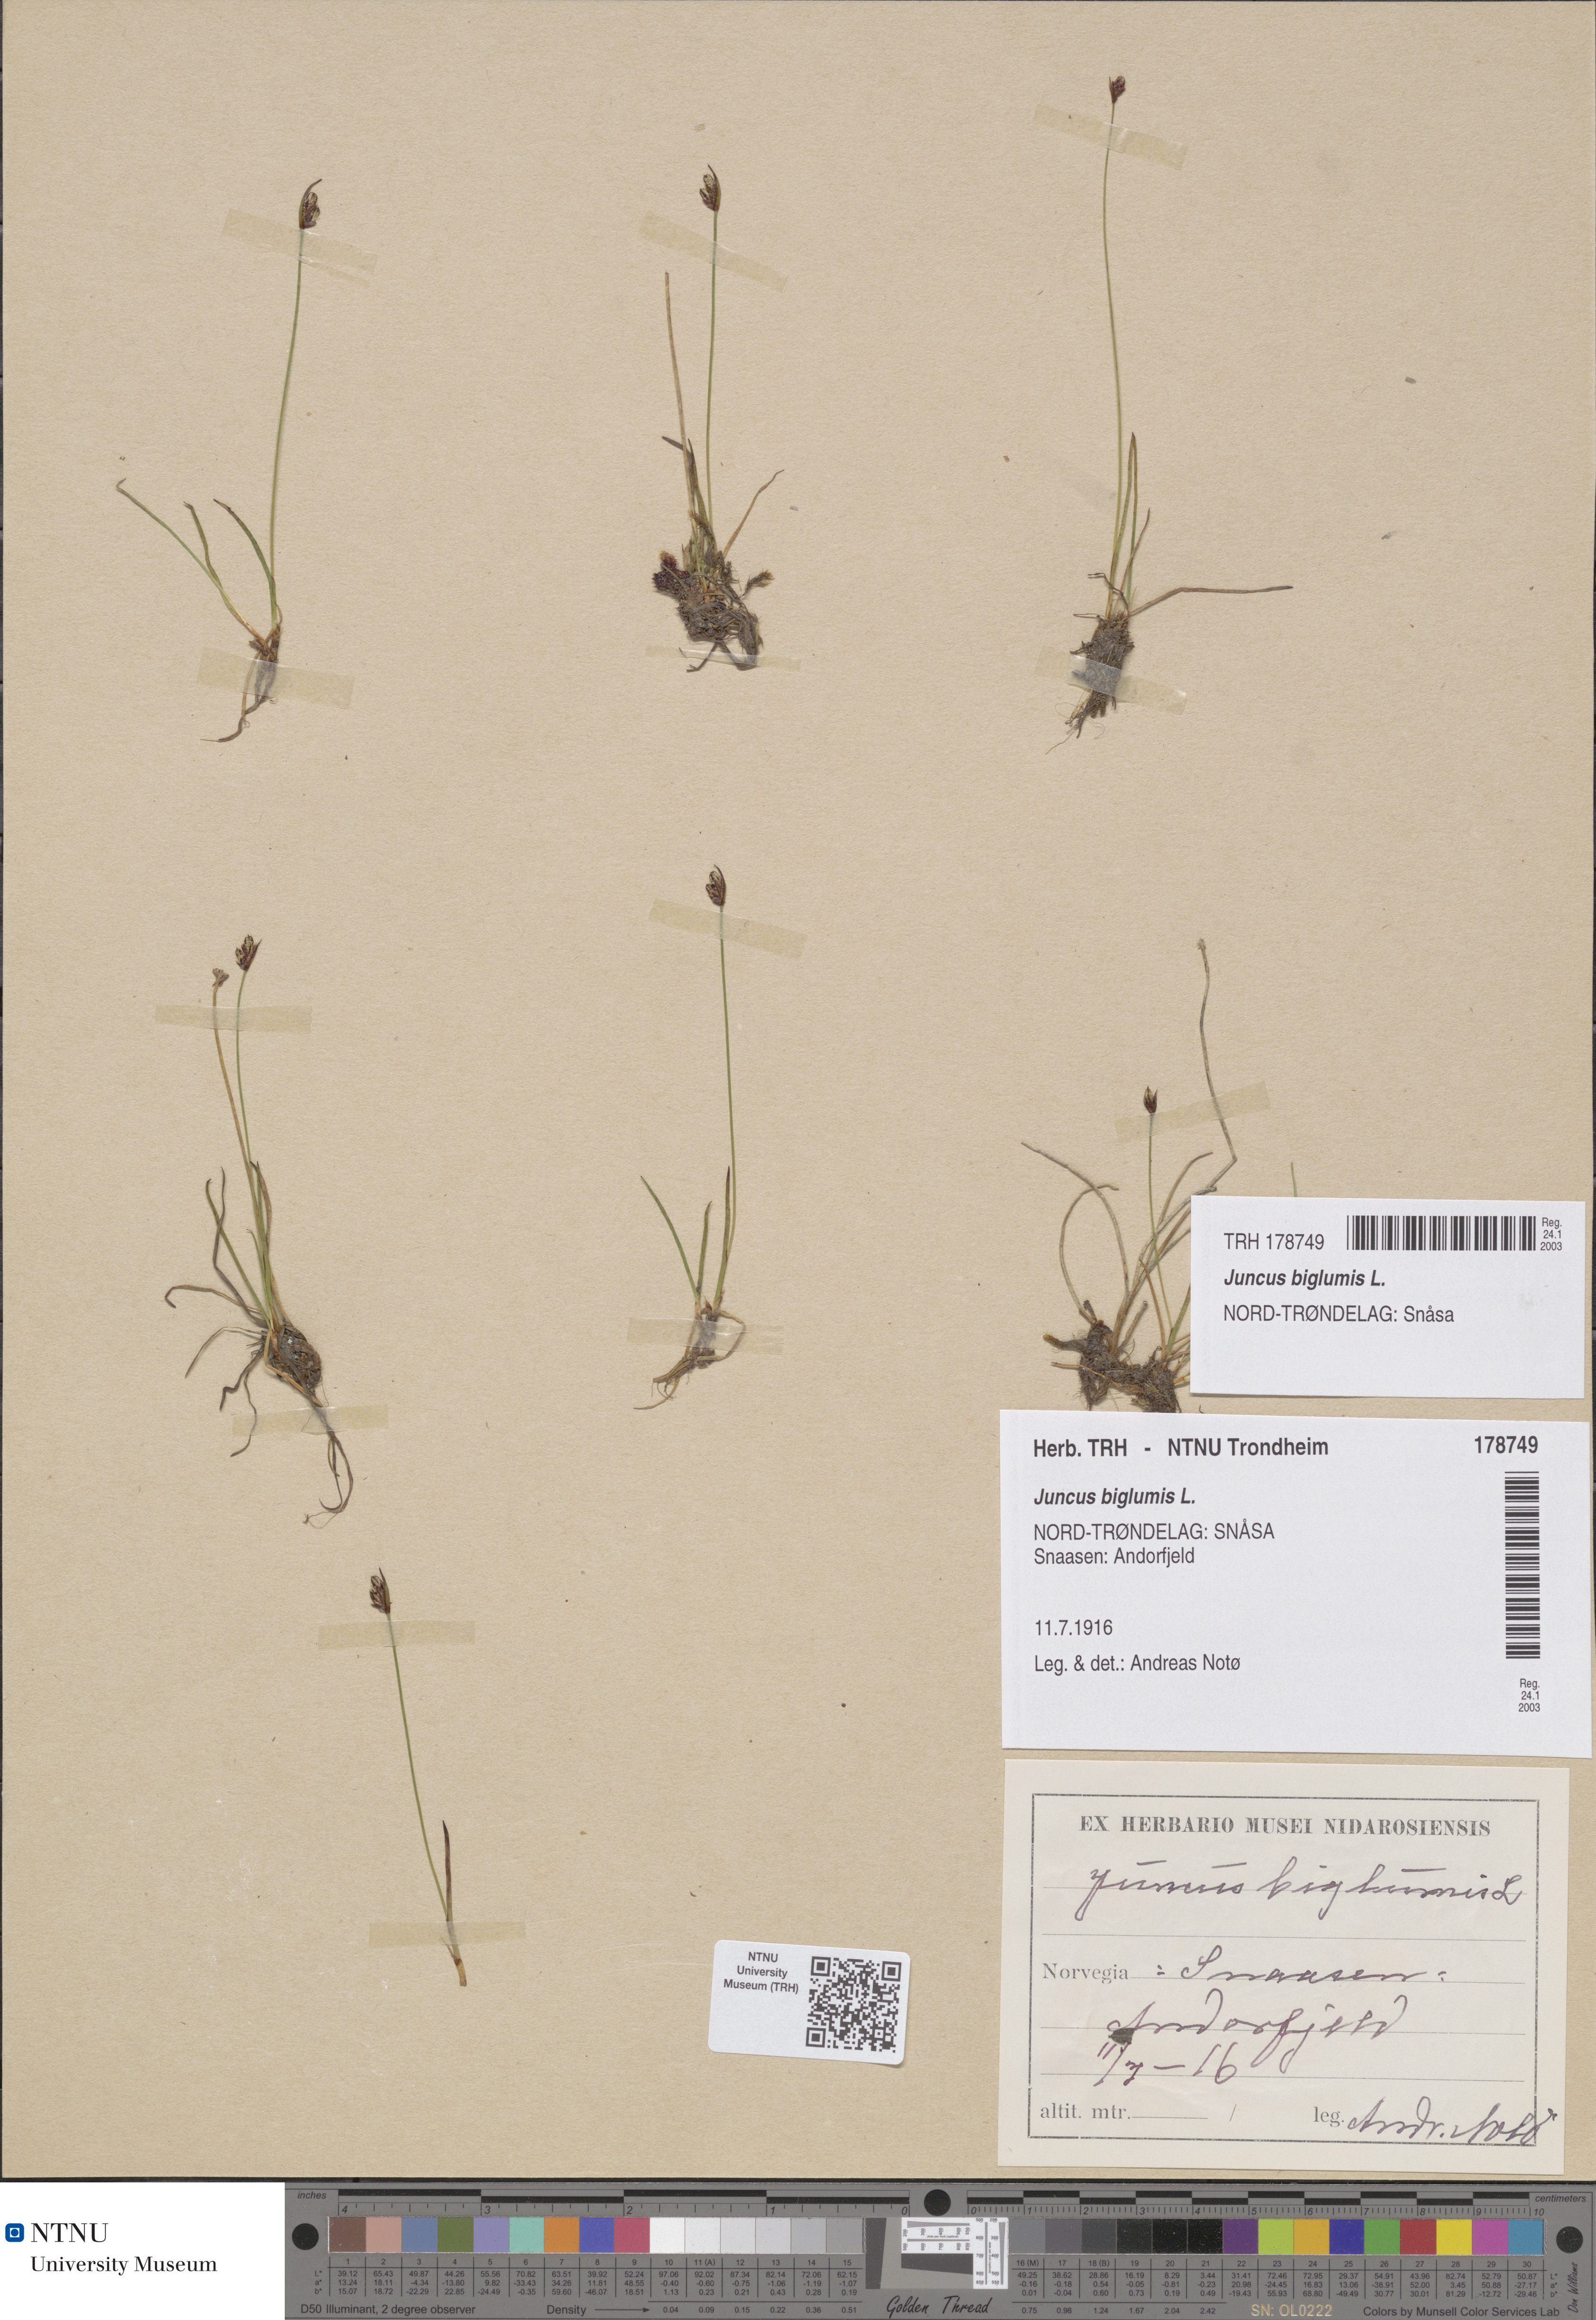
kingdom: Plantae
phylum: Tracheophyta
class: Liliopsida
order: Poales
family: Juncaceae
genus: Juncus
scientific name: Juncus biglumis
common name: Two-flowered rush
